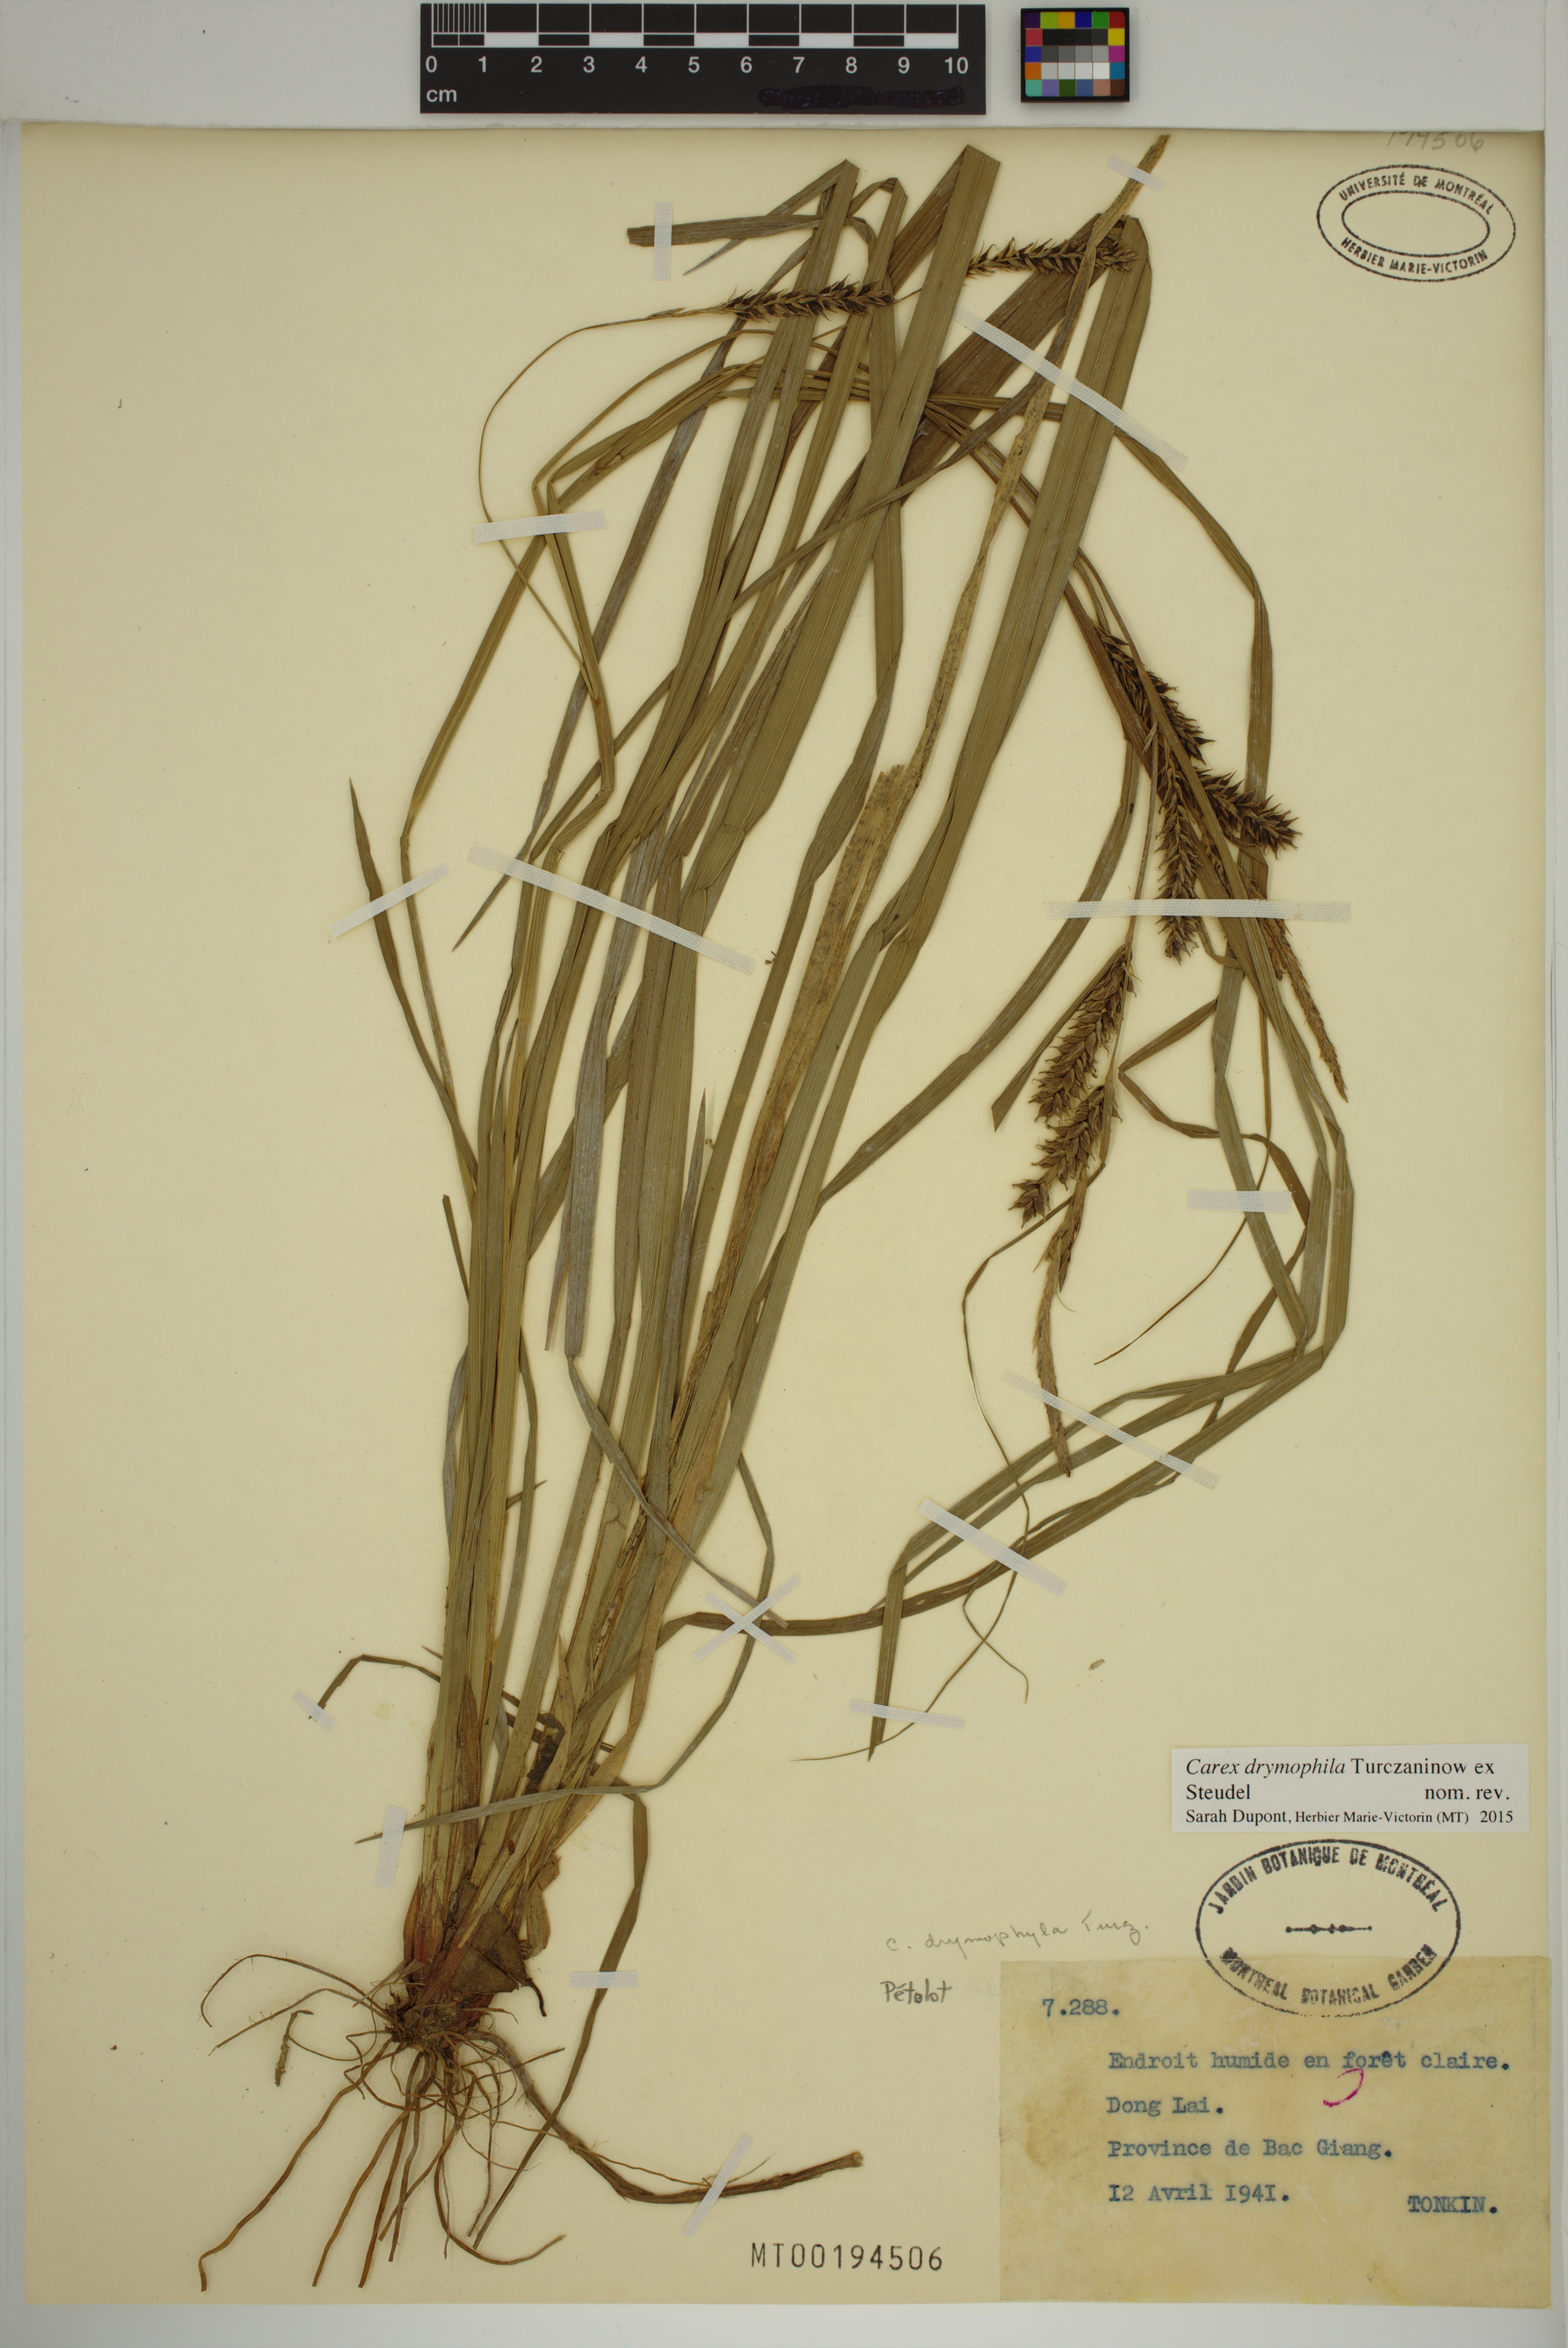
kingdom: Plantae
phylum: Tracheophyta
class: Liliopsida
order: Poales
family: Cyperaceae
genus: Carex
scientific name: Carex drymophila
